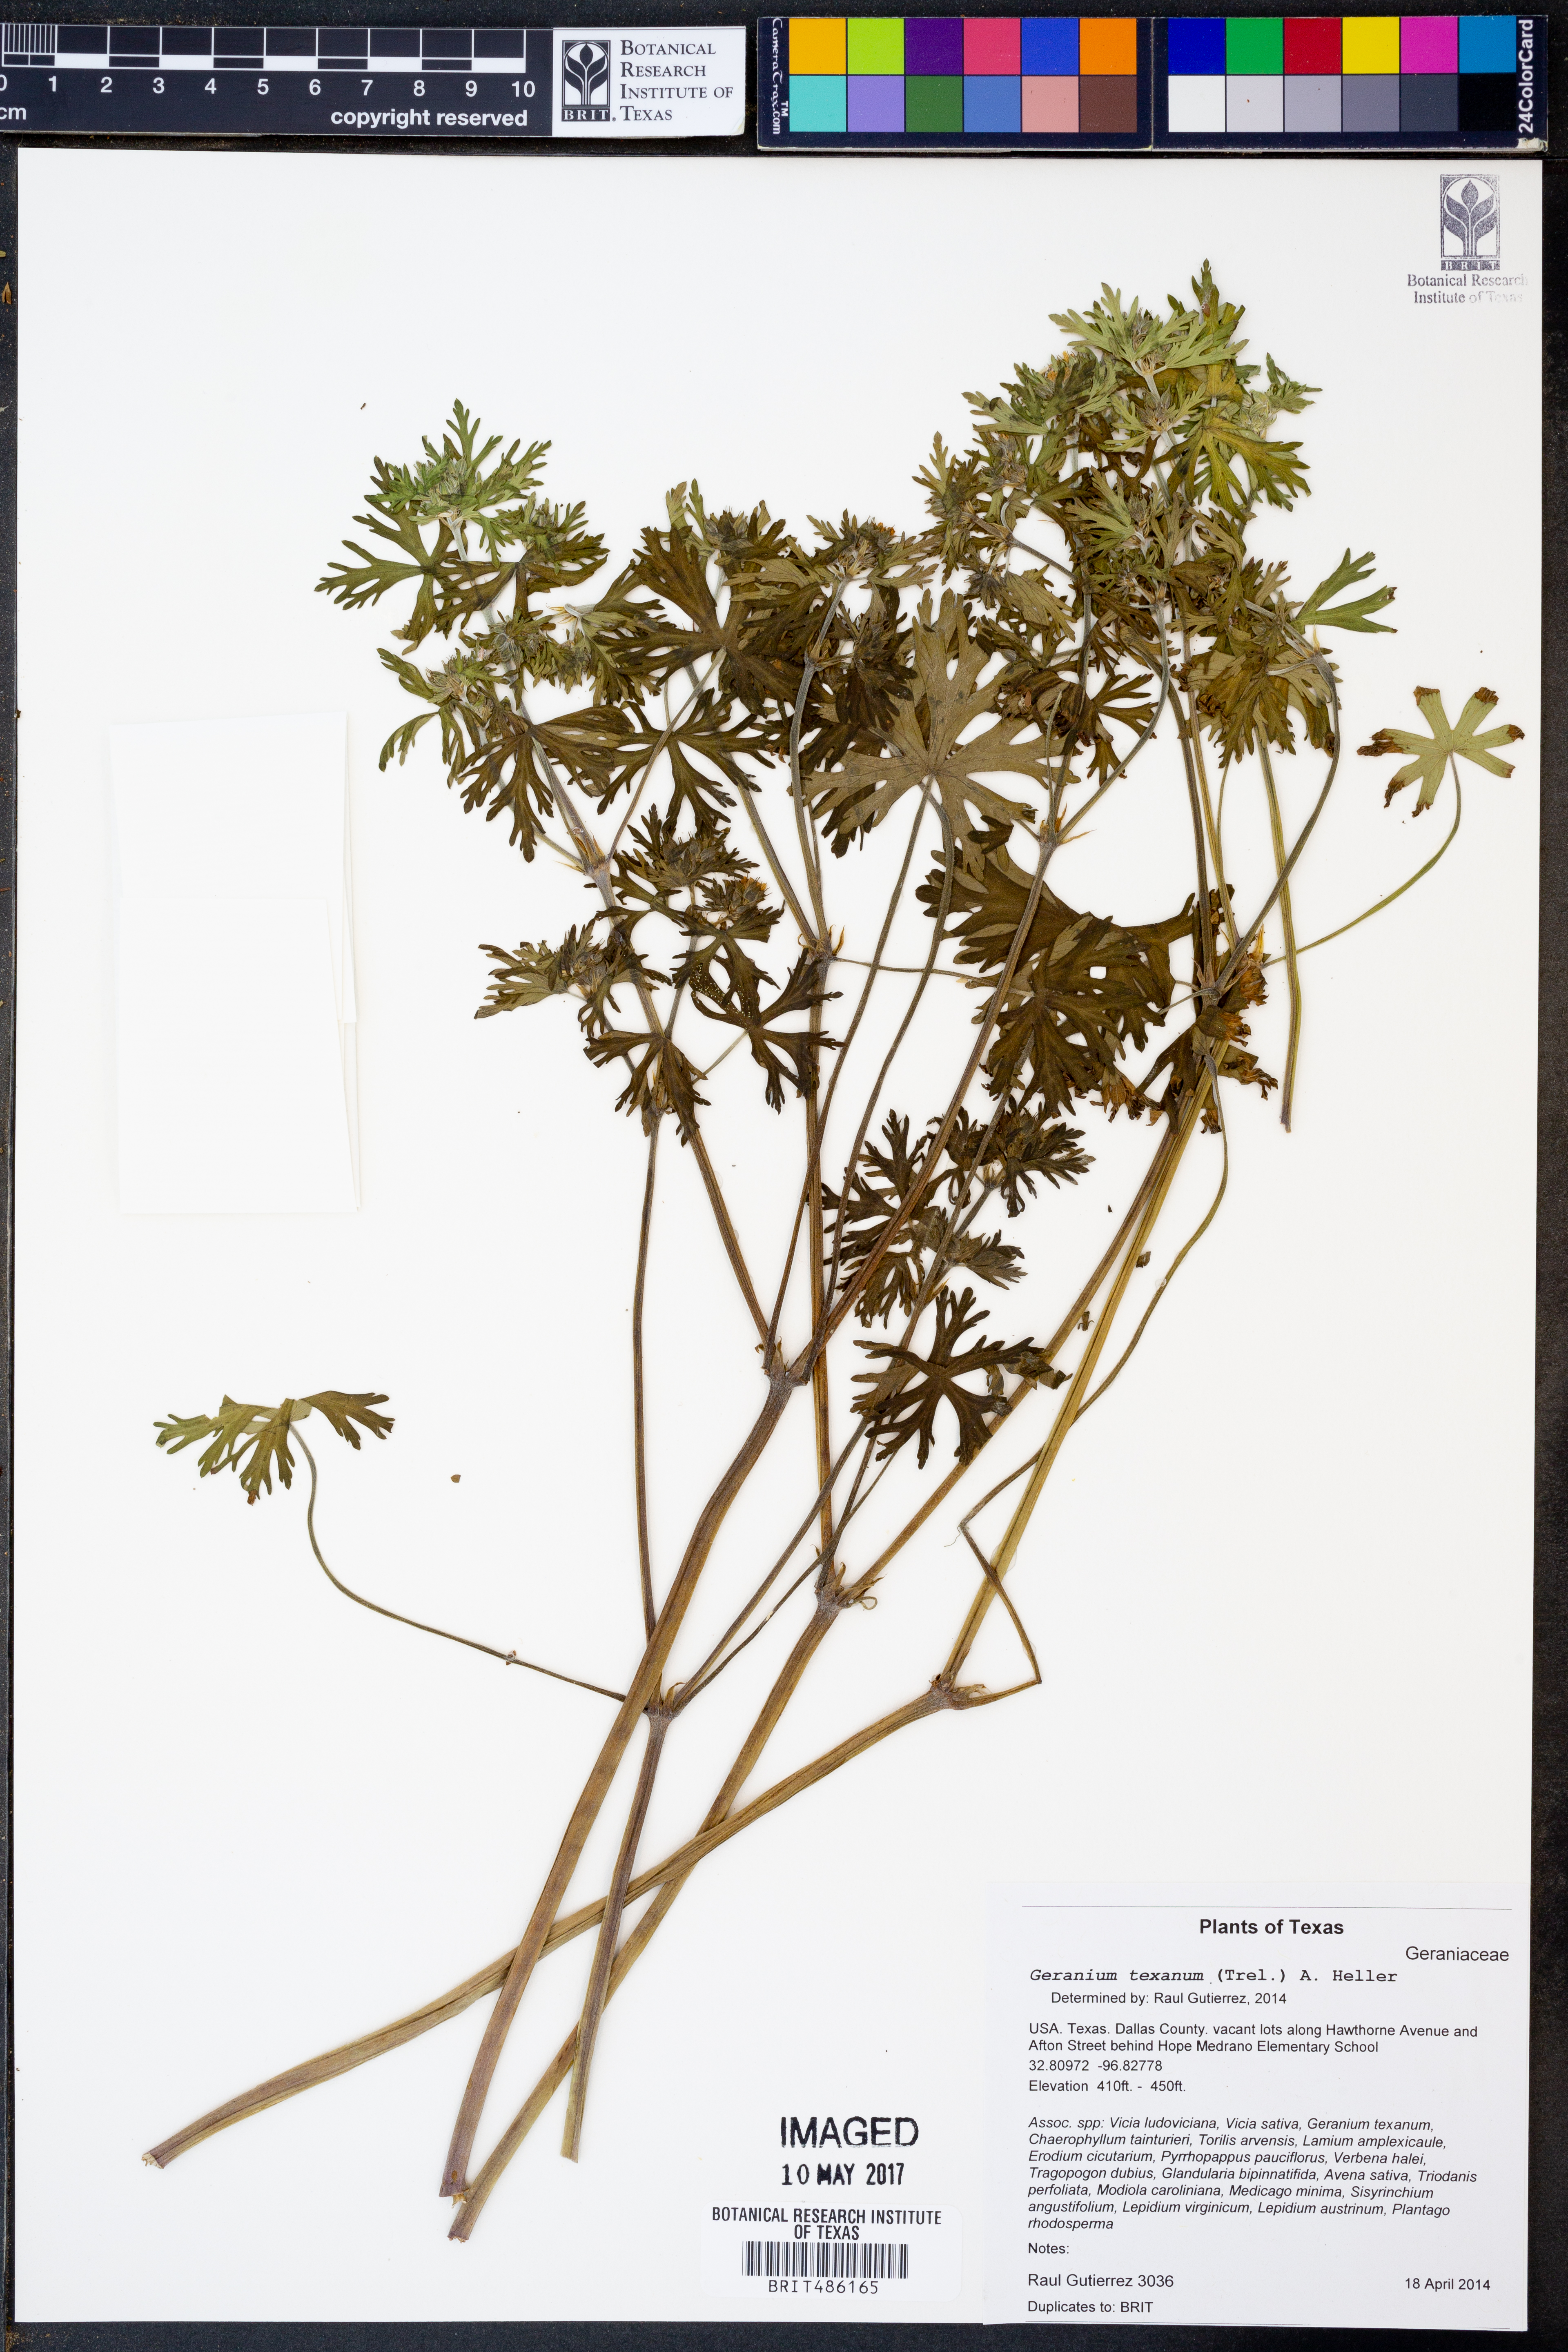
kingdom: Plantae
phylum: Tracheophyta
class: Magnoliopsida
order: Geraniales
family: Geraniaceae
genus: Geranium
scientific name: Geranium texanum
